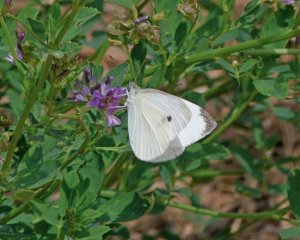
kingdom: Animalia
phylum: Arthropoda
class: Insecta
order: Lepidoptera
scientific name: Lepidoptera
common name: Butterflies
